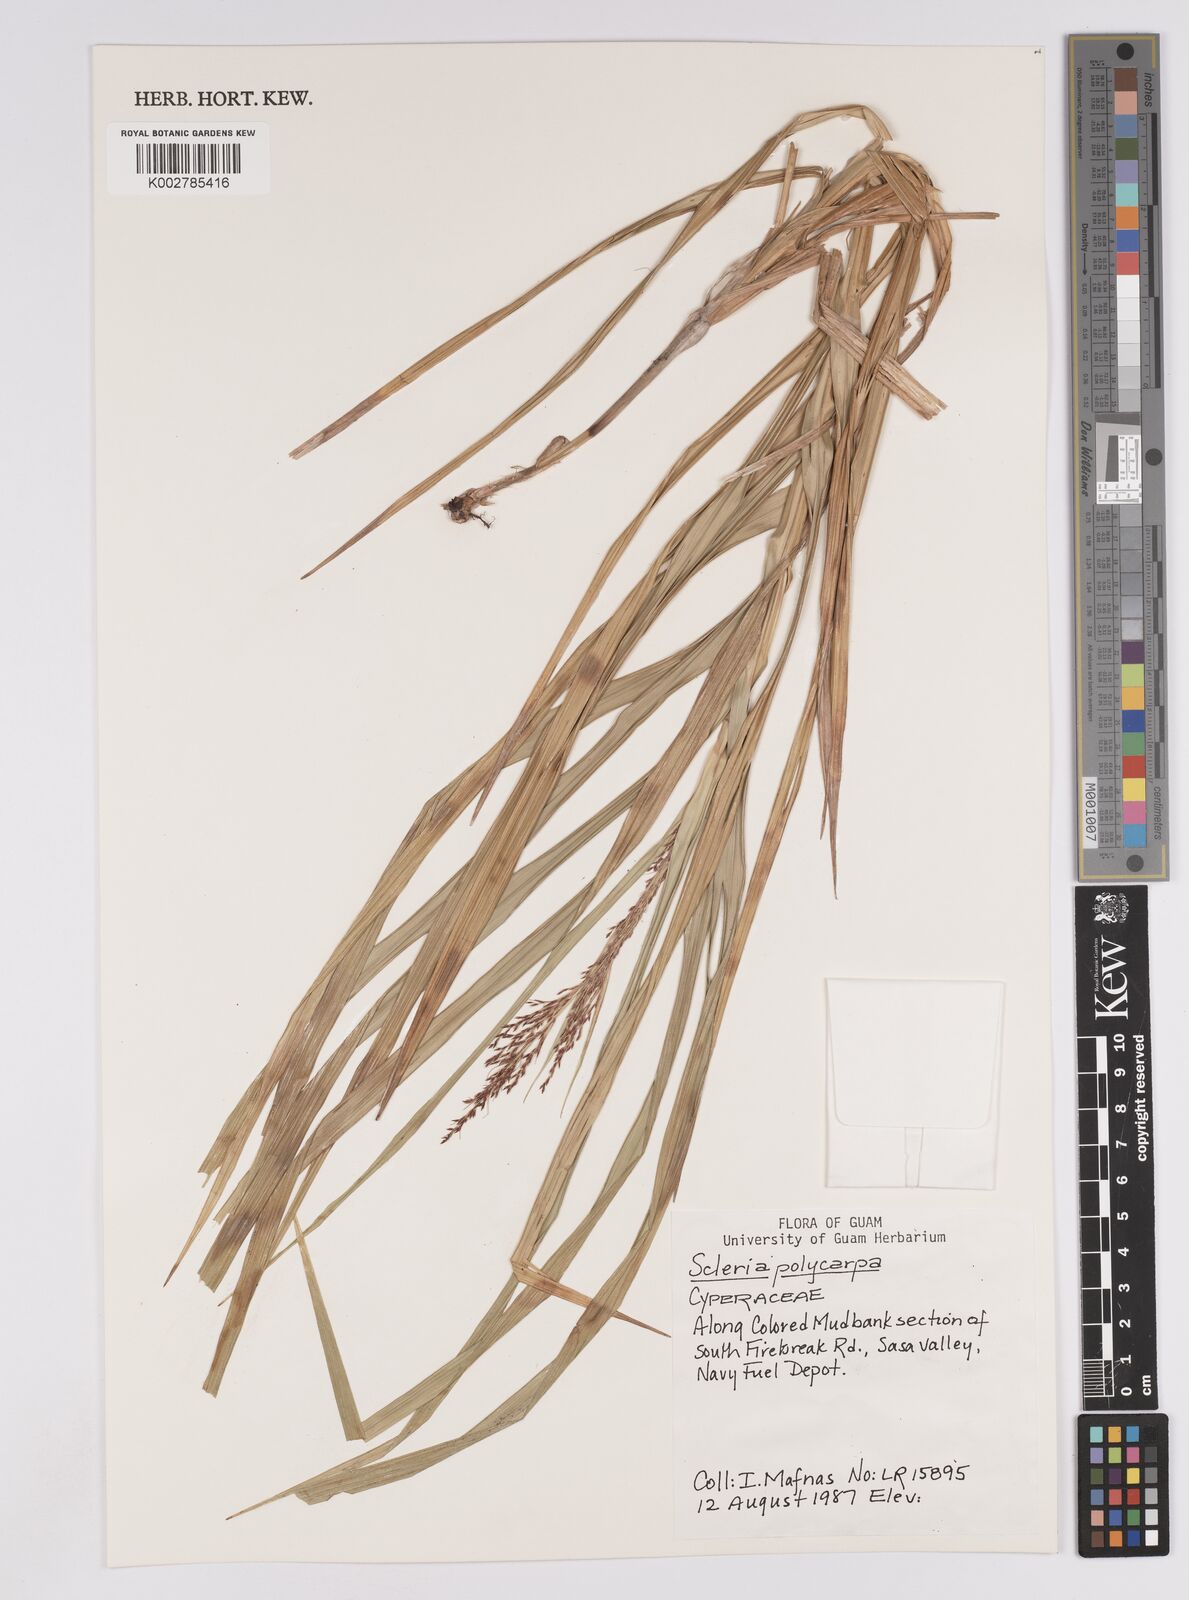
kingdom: Plantae
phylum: Tracheophyta
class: Liliopsida
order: Poales
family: Cyperaceae
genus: Scleria
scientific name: Scleria polycarpa
